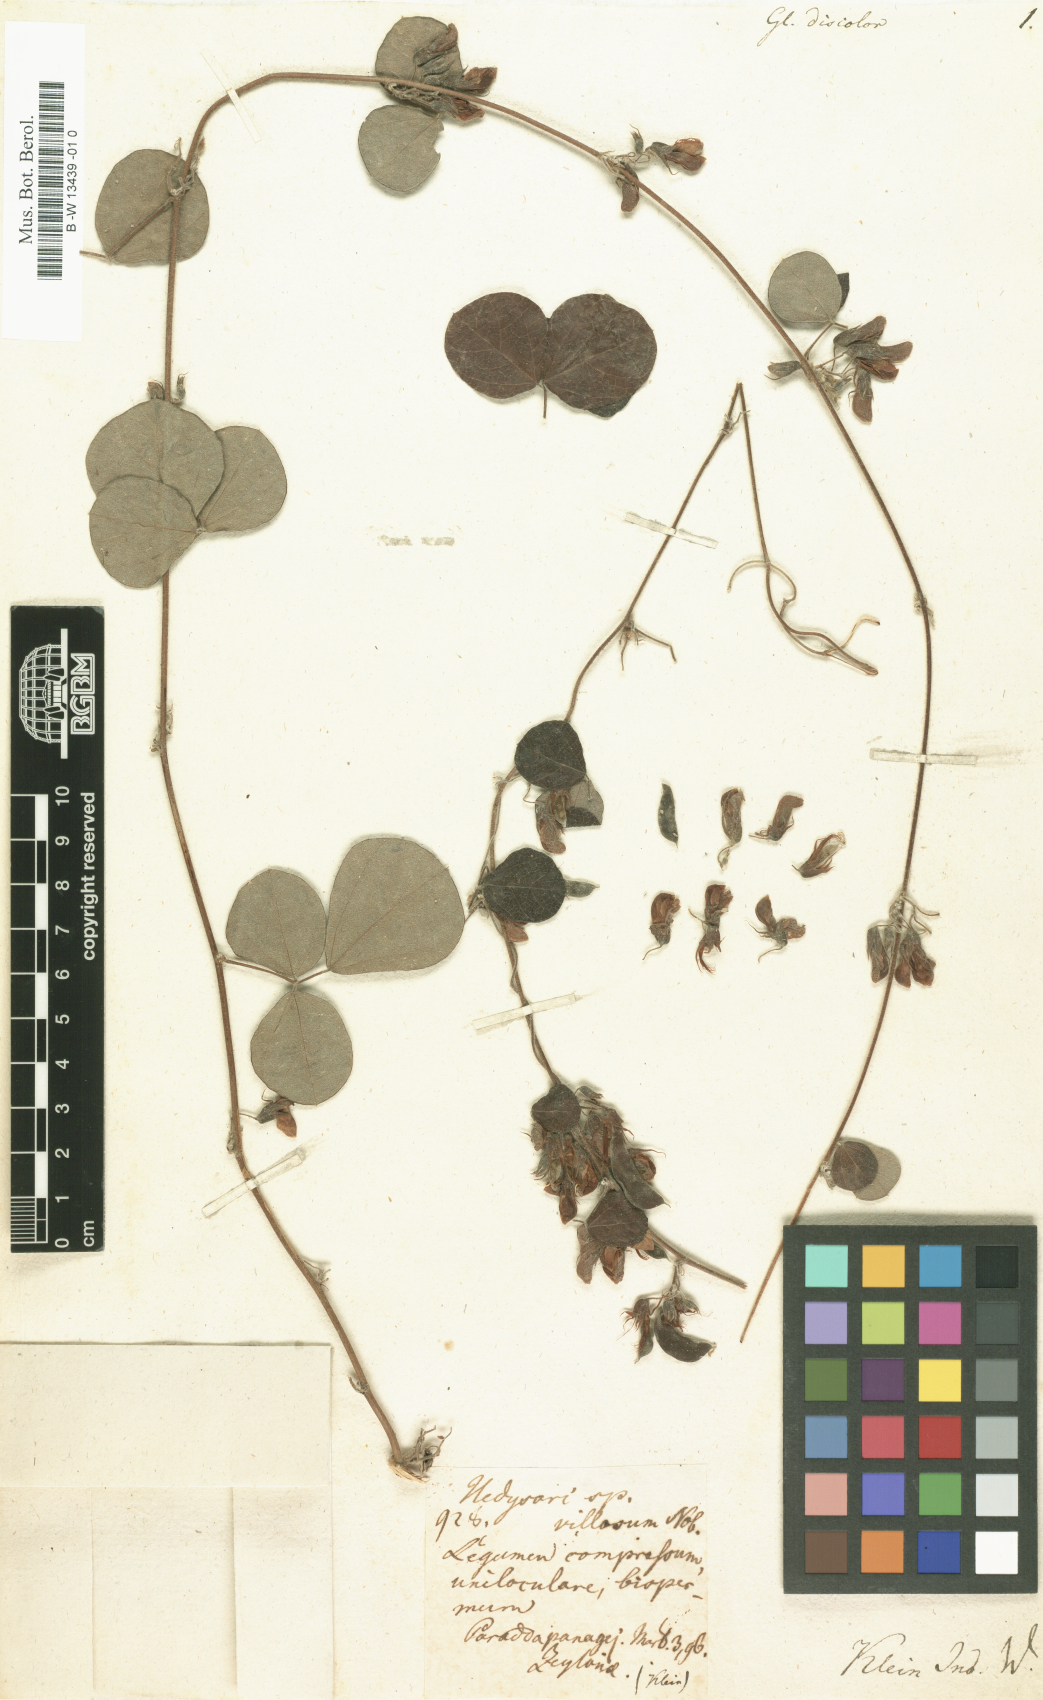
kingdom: Plantae
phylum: Tracheophyta
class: Magnoliopsida
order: Fabales
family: Fabaceae
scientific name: Fabaceae
